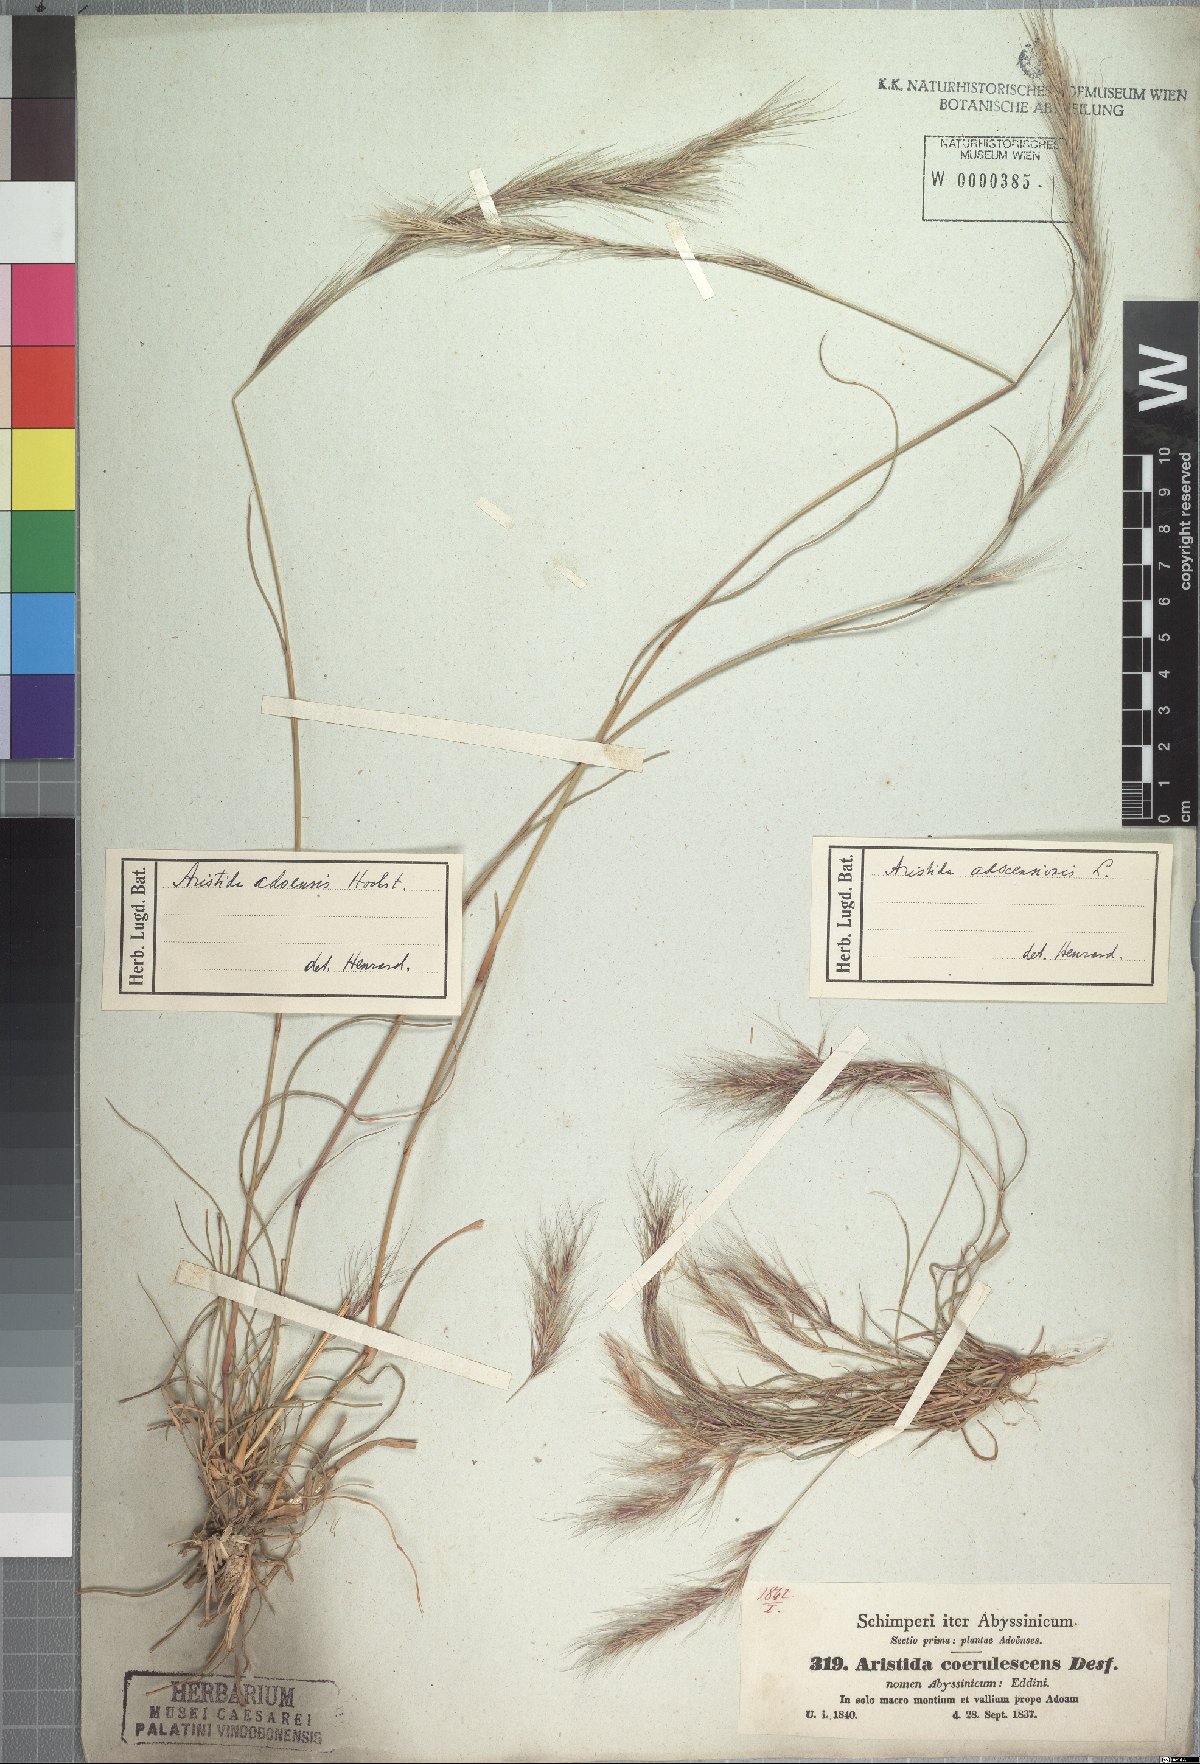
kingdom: Plantae
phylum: Tracheophyta
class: Liliopsida
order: Poales
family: Poaceae
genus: Aristida
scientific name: Aristida adscensionis
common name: Sixweeks threeawn
